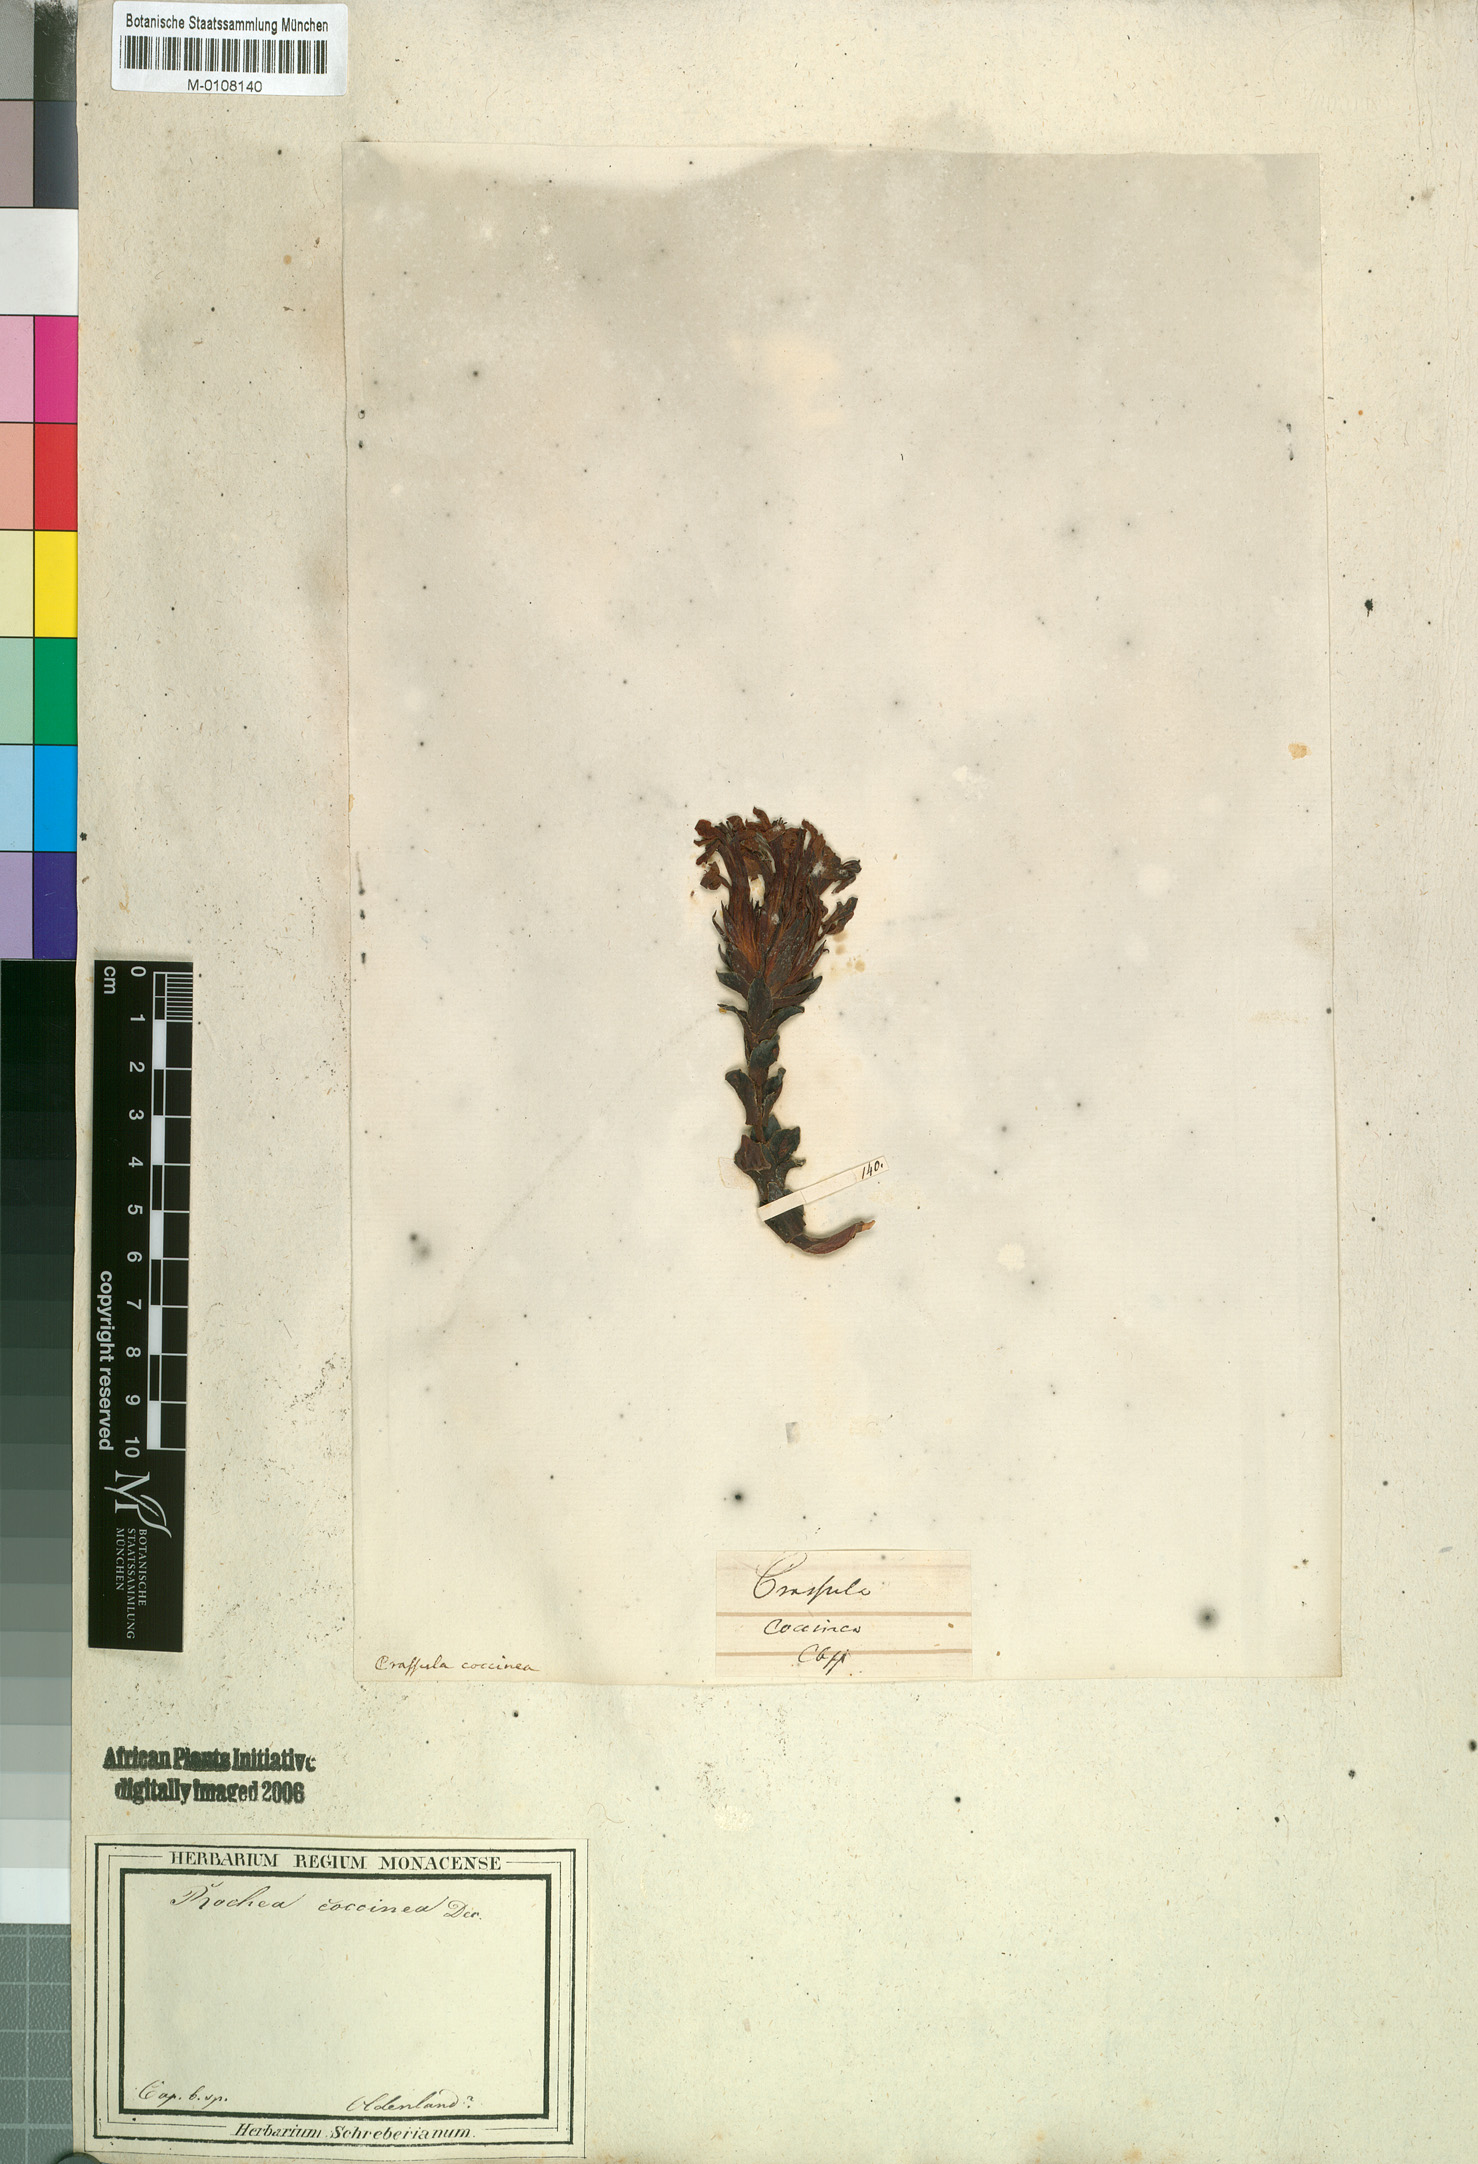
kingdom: Plantae
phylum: Tracheophyta
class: Magnoliopsida
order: Saxifragales
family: Crassulaceae
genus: Crassula
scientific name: Crassula coccinea
